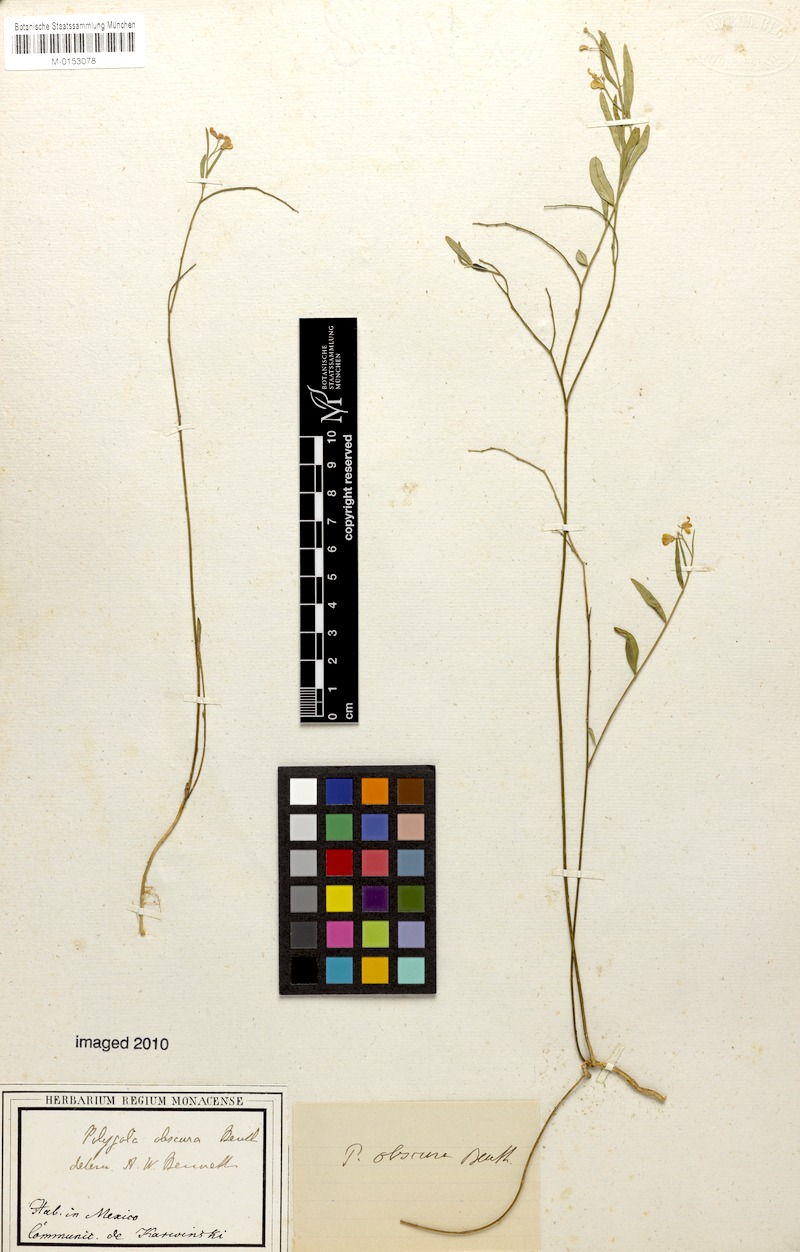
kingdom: Plantae
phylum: Tracheophyta
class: Magnoliopsida
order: Fabales
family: Polygalaceae
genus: Hebecarpa
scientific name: Hebecarpa obscura
